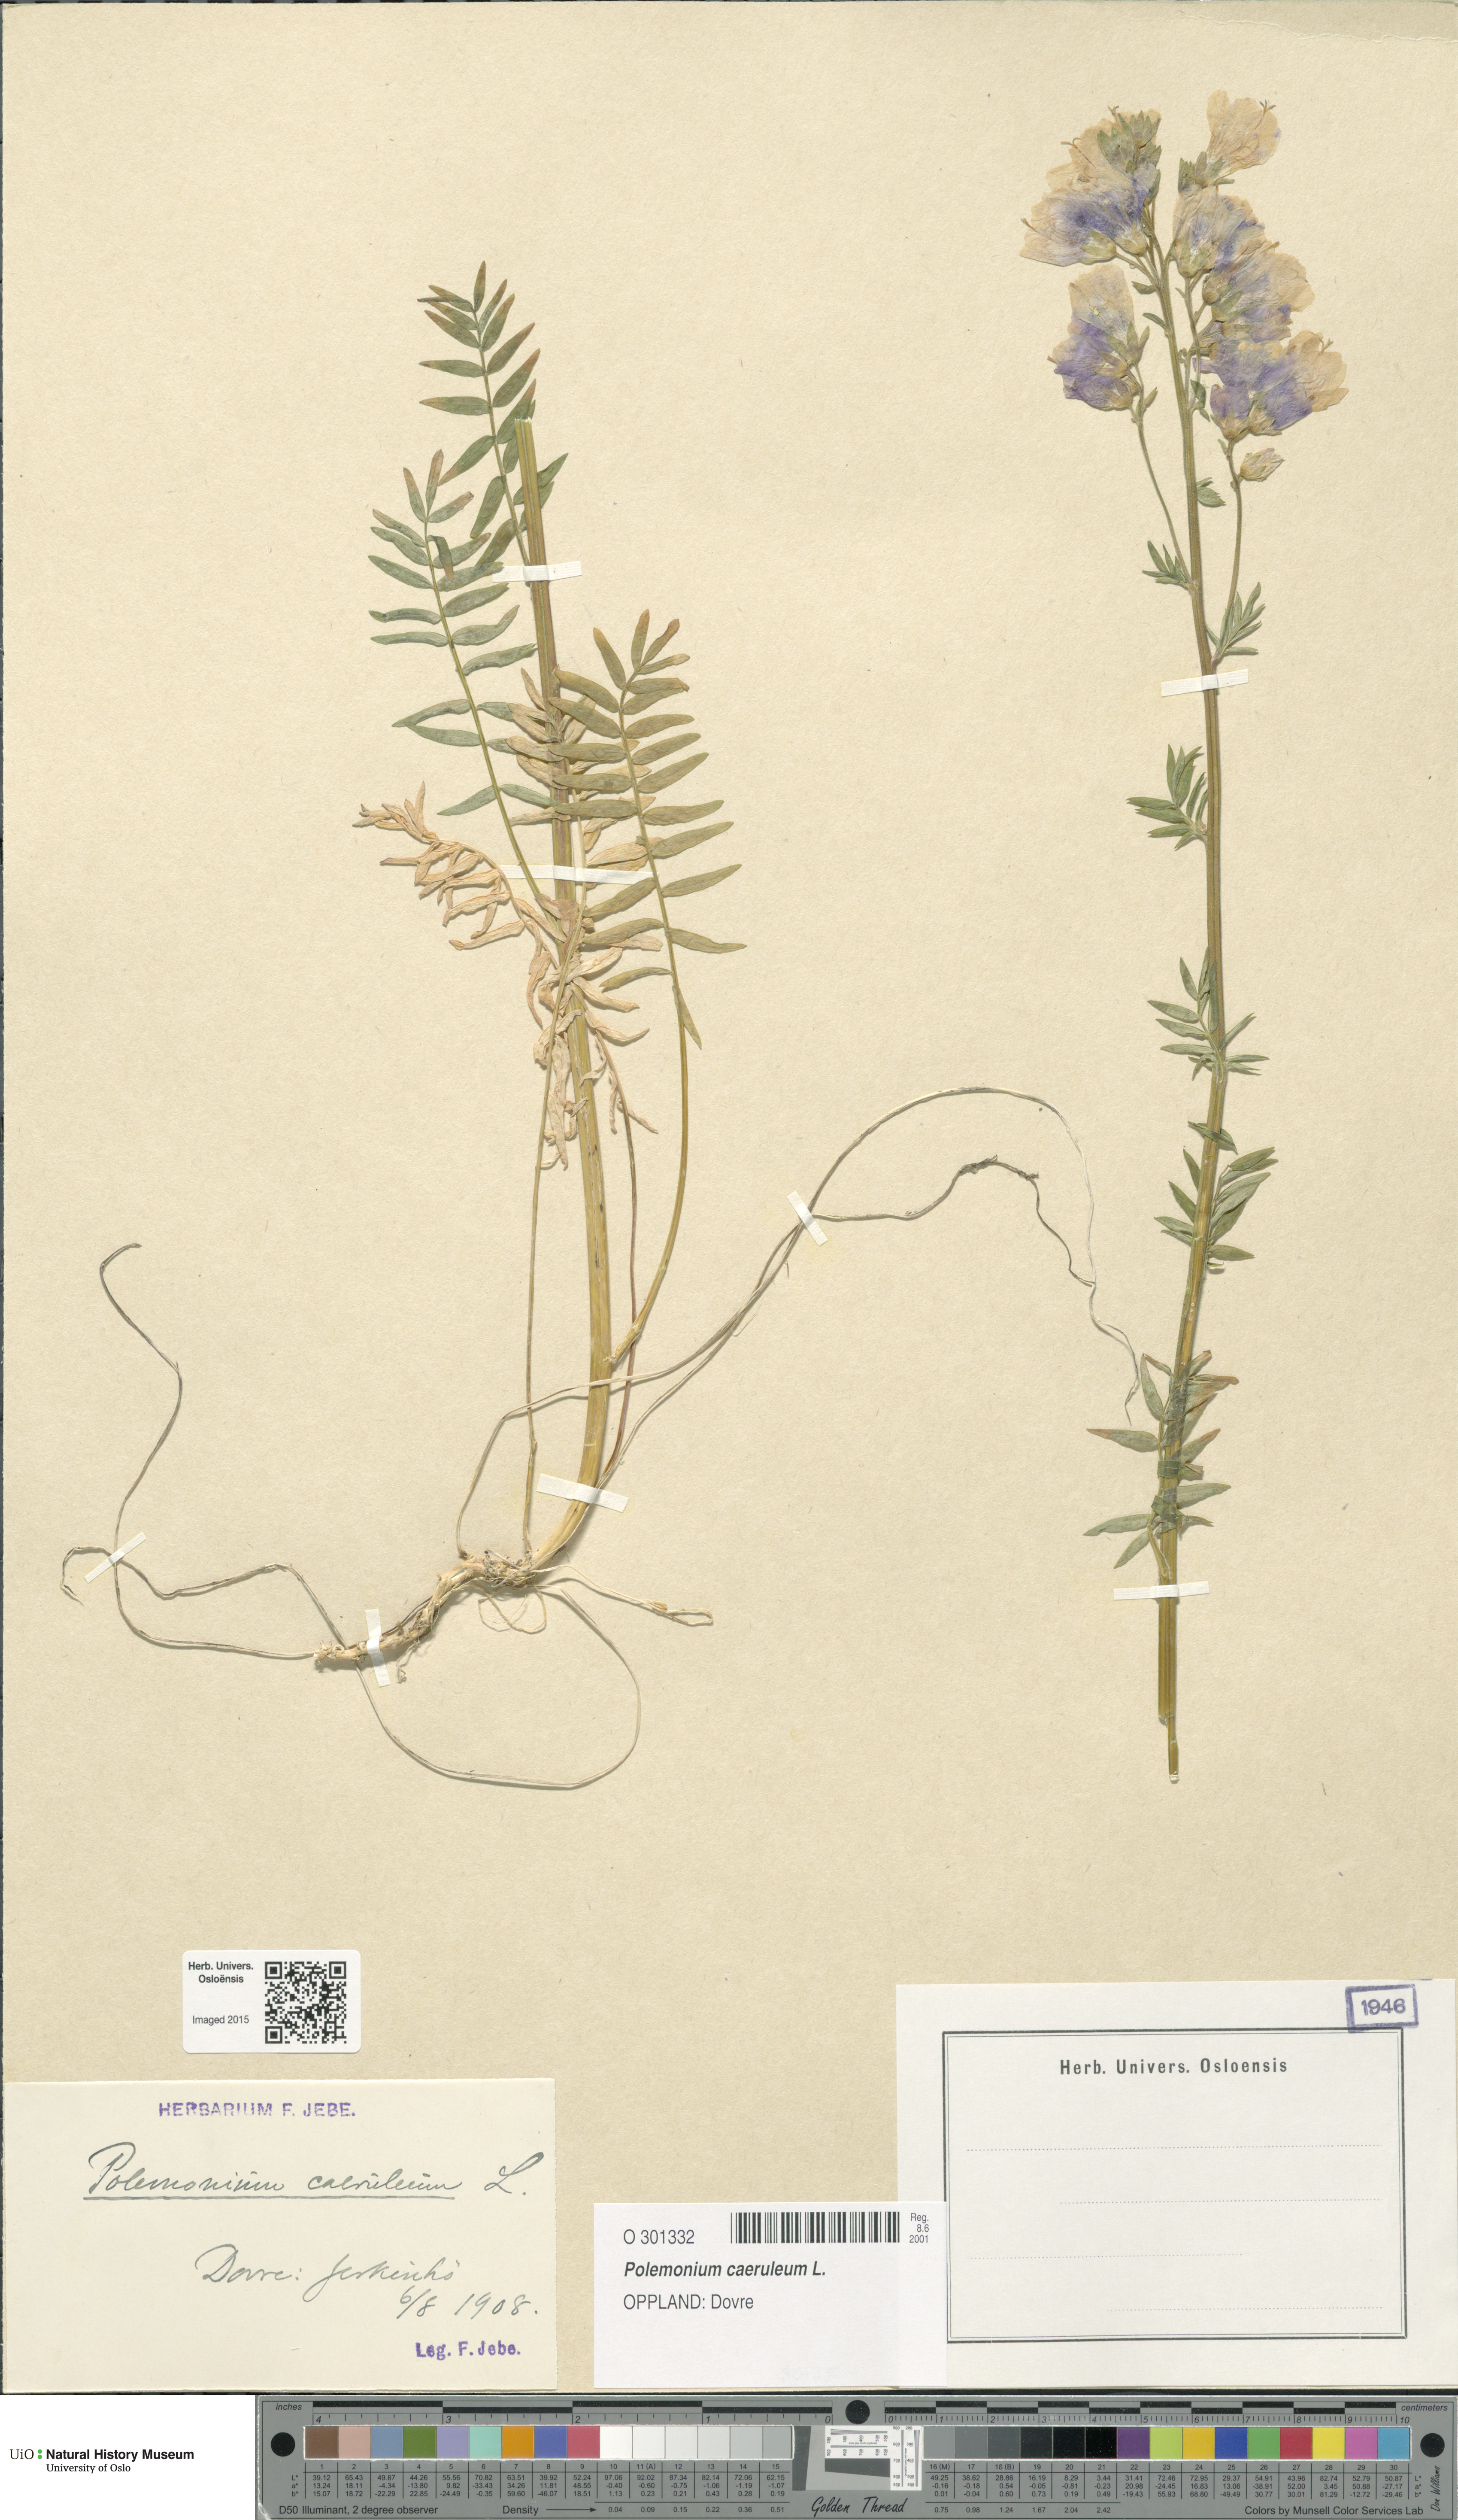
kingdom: Plantae
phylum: Tracheophyta
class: Magnoliopsida
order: Ericales
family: Polemoniaceae
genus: Polemonium
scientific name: Polemonium caeruleum
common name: Jacob's-ladder
